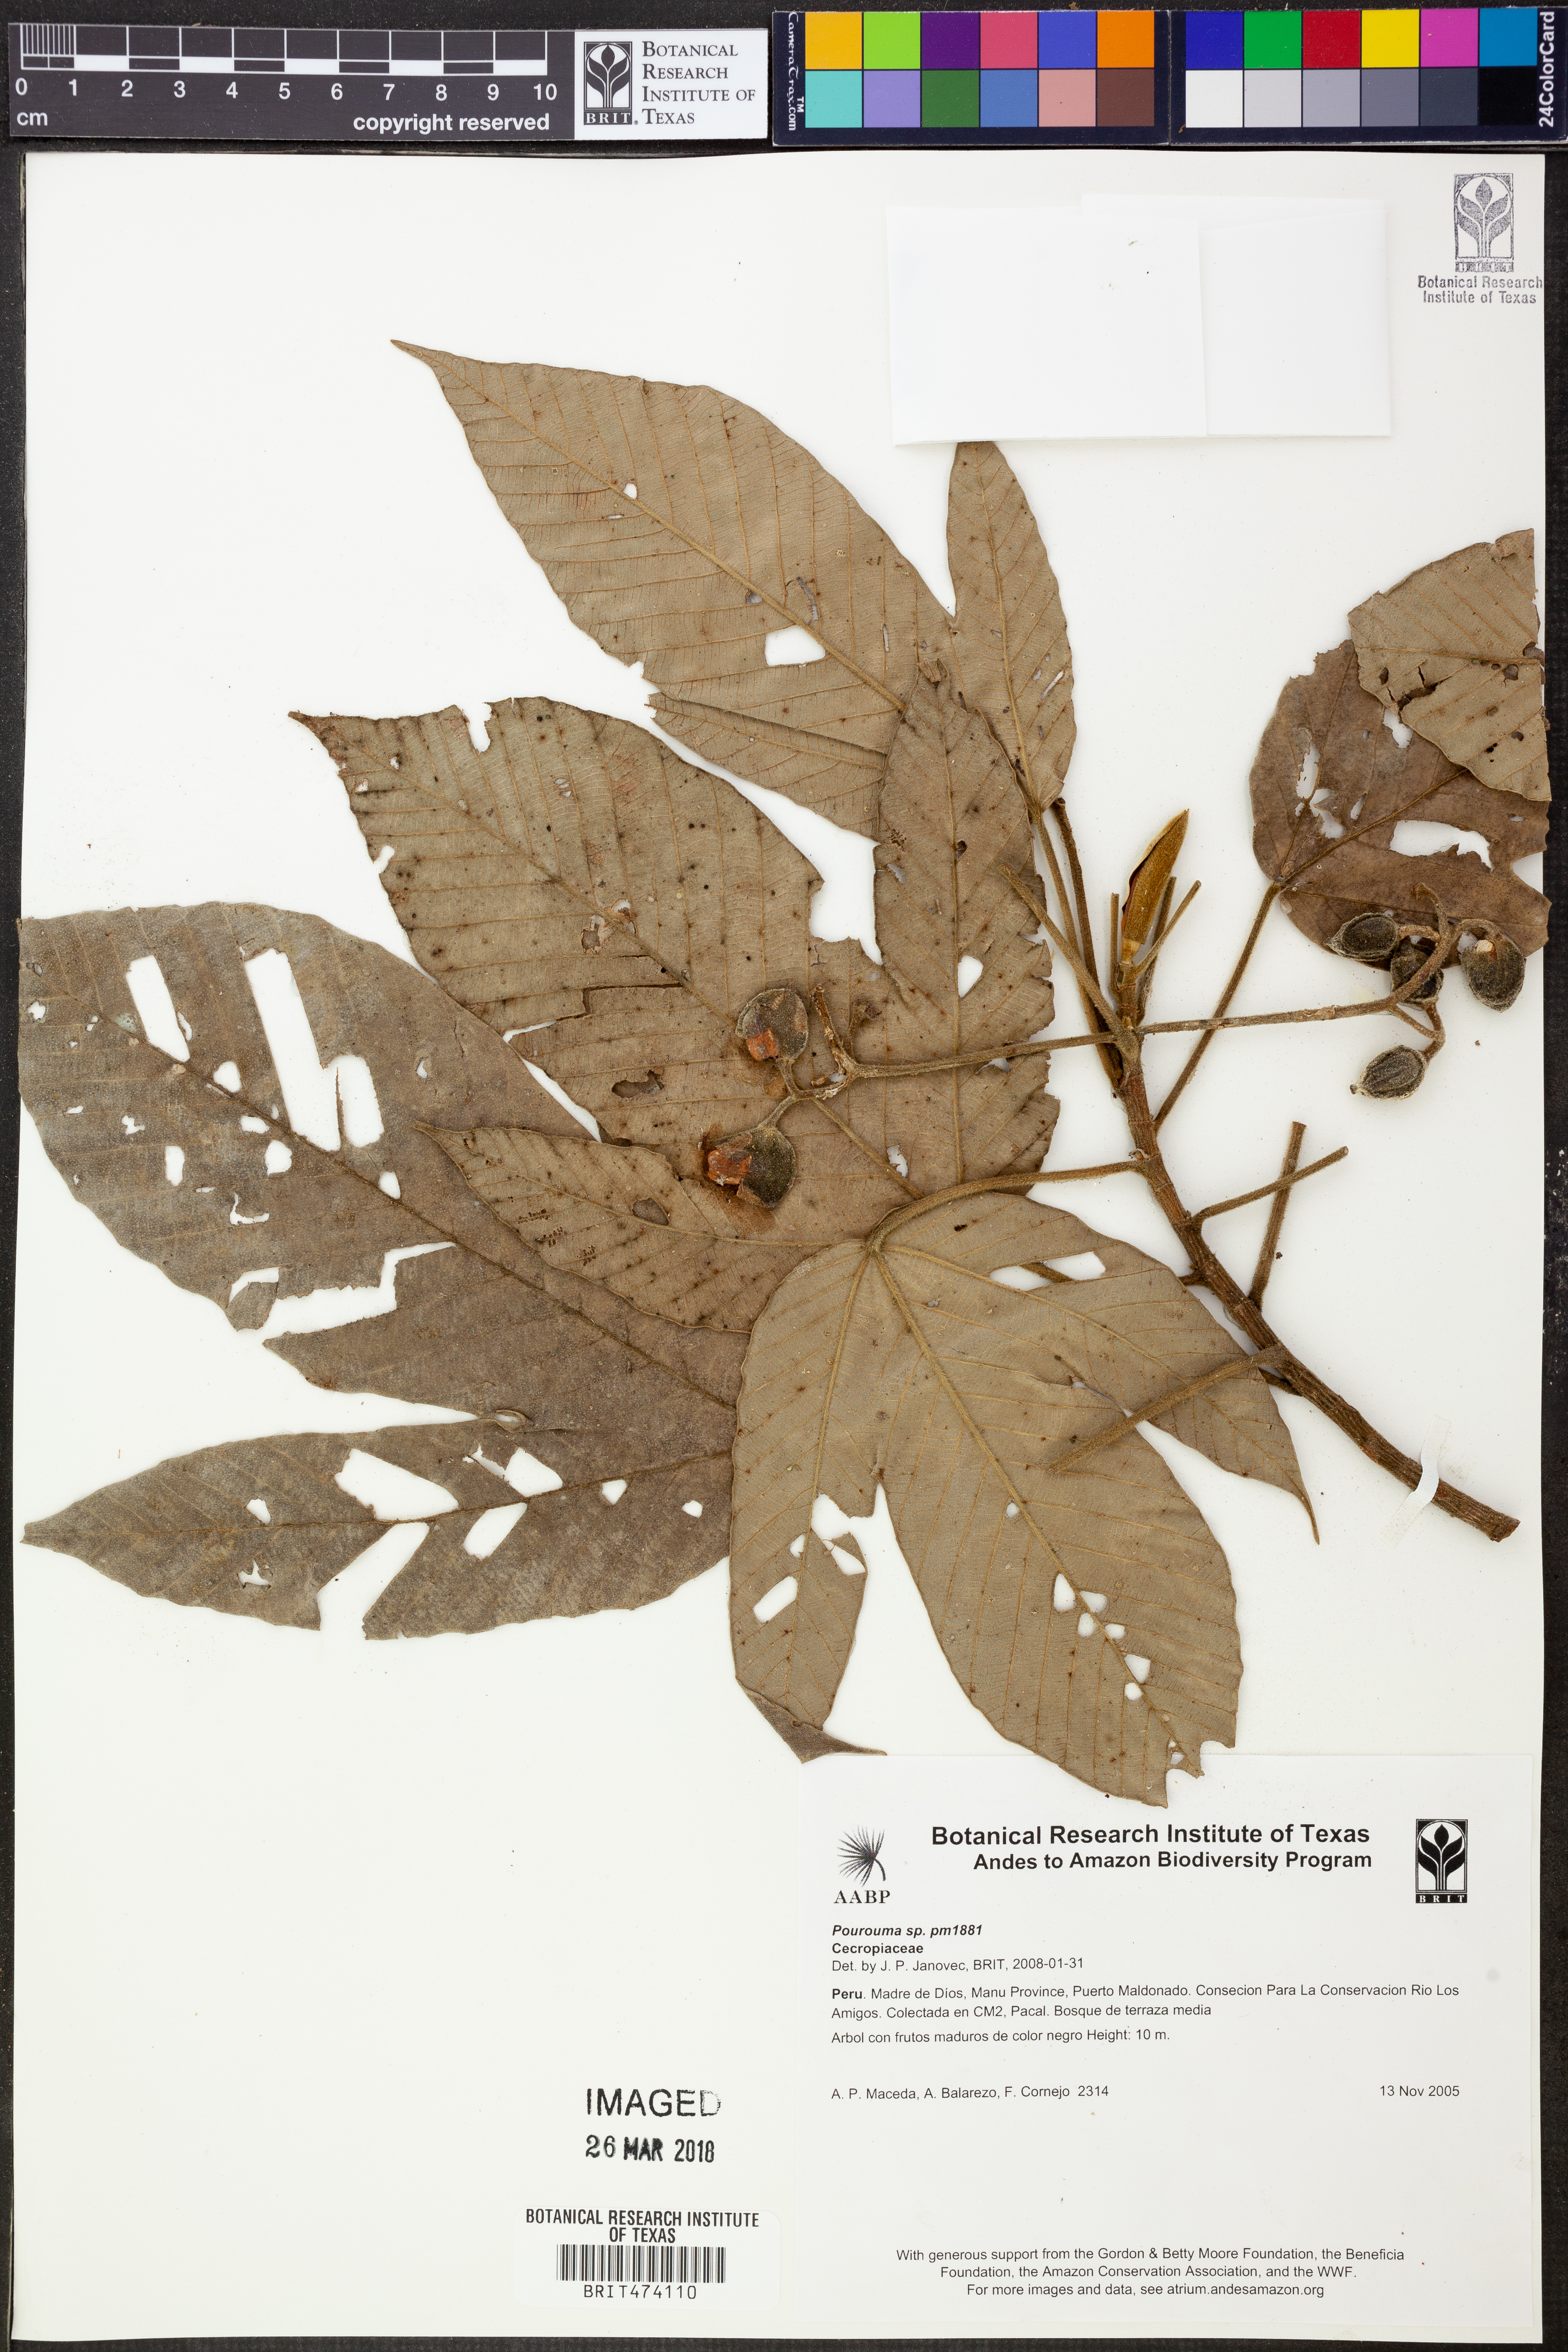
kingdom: Plantae
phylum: Tracheophyta
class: Magnoliopsida
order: Rosales
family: Urticaceae
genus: Pourouma
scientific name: Pourouma
